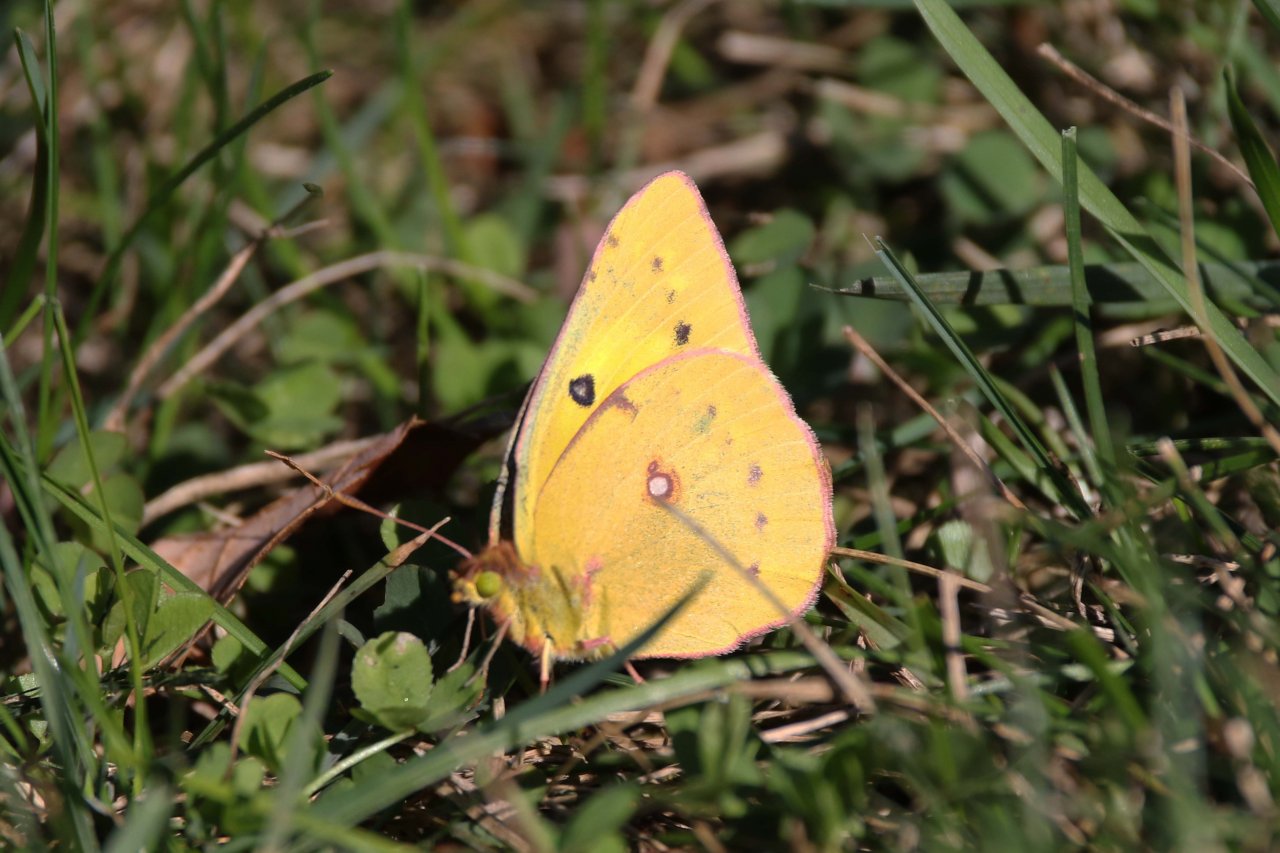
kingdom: Animalia
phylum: Arthropoda
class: Insecta
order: Lepidoptera
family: Pieridae
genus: Colias
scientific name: Colias eurytheme
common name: Orange Sulphur
